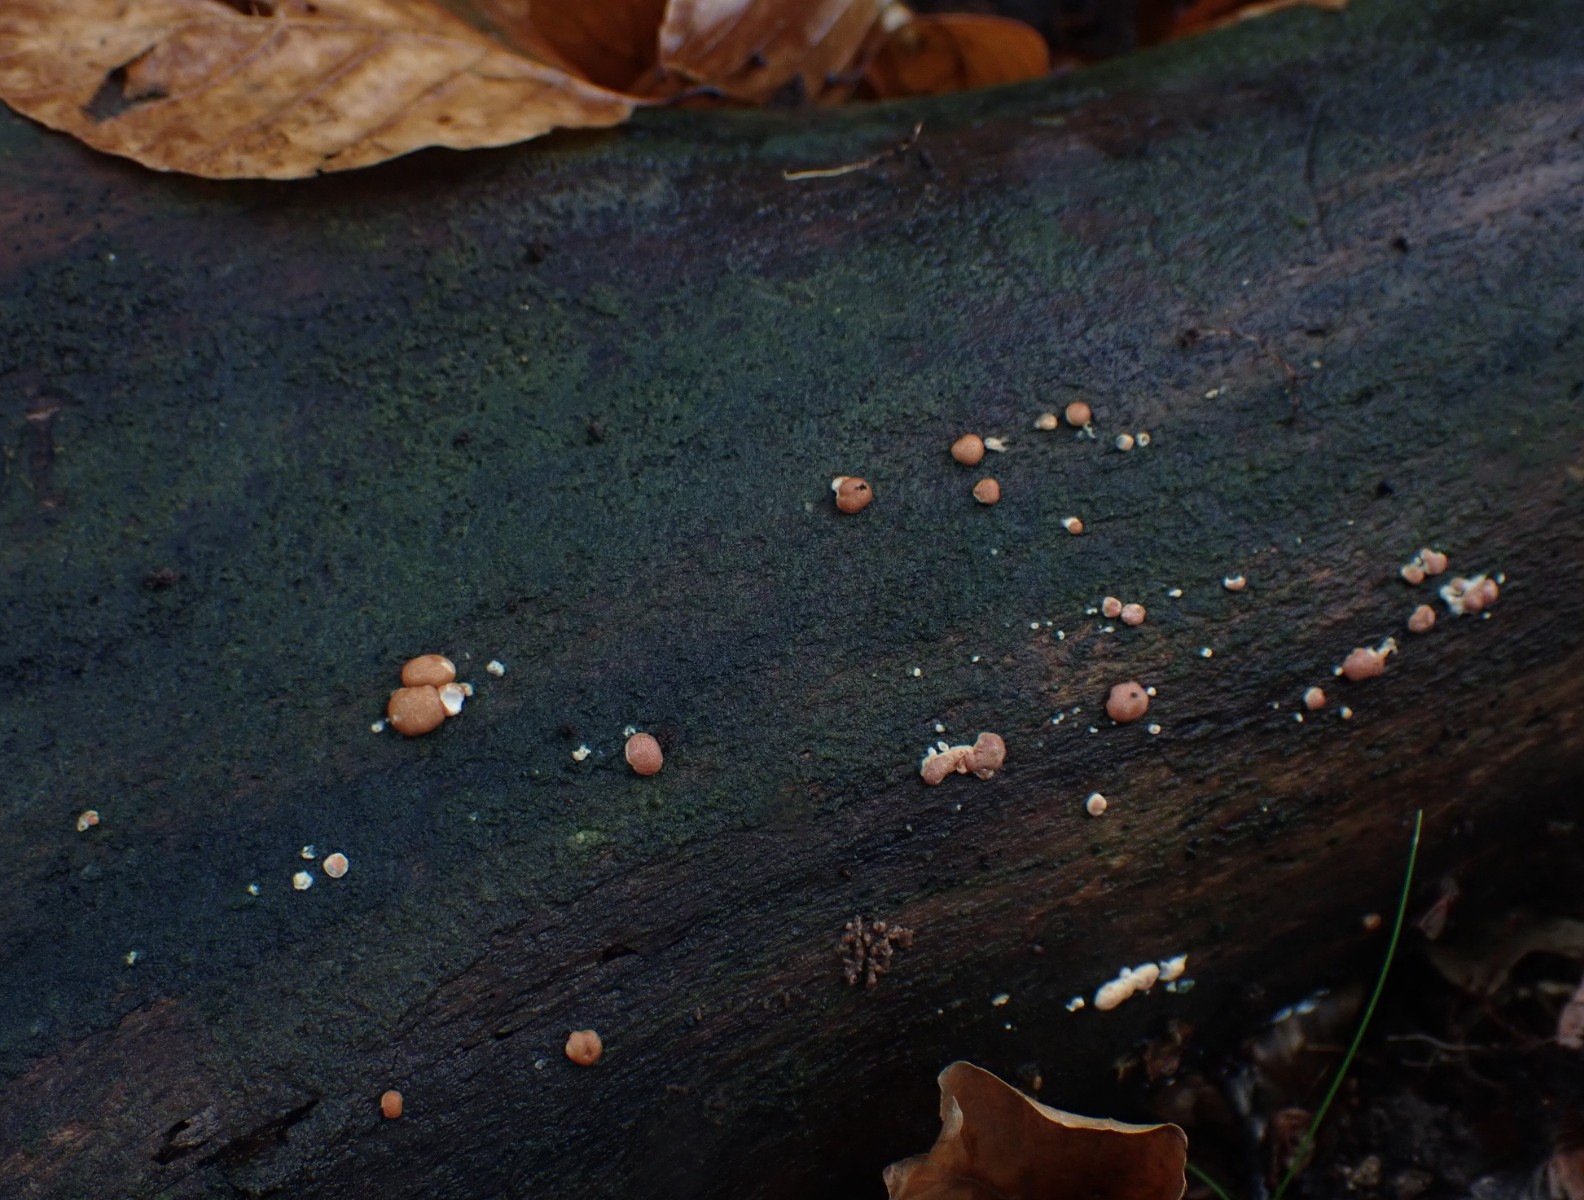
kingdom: Fungi
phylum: Ascomycota
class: Sordariomycetes
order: Hypocreales
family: Hypocreaceae
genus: Trichoderma
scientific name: Trichoderma europaeum
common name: rosabrun kødkerne
